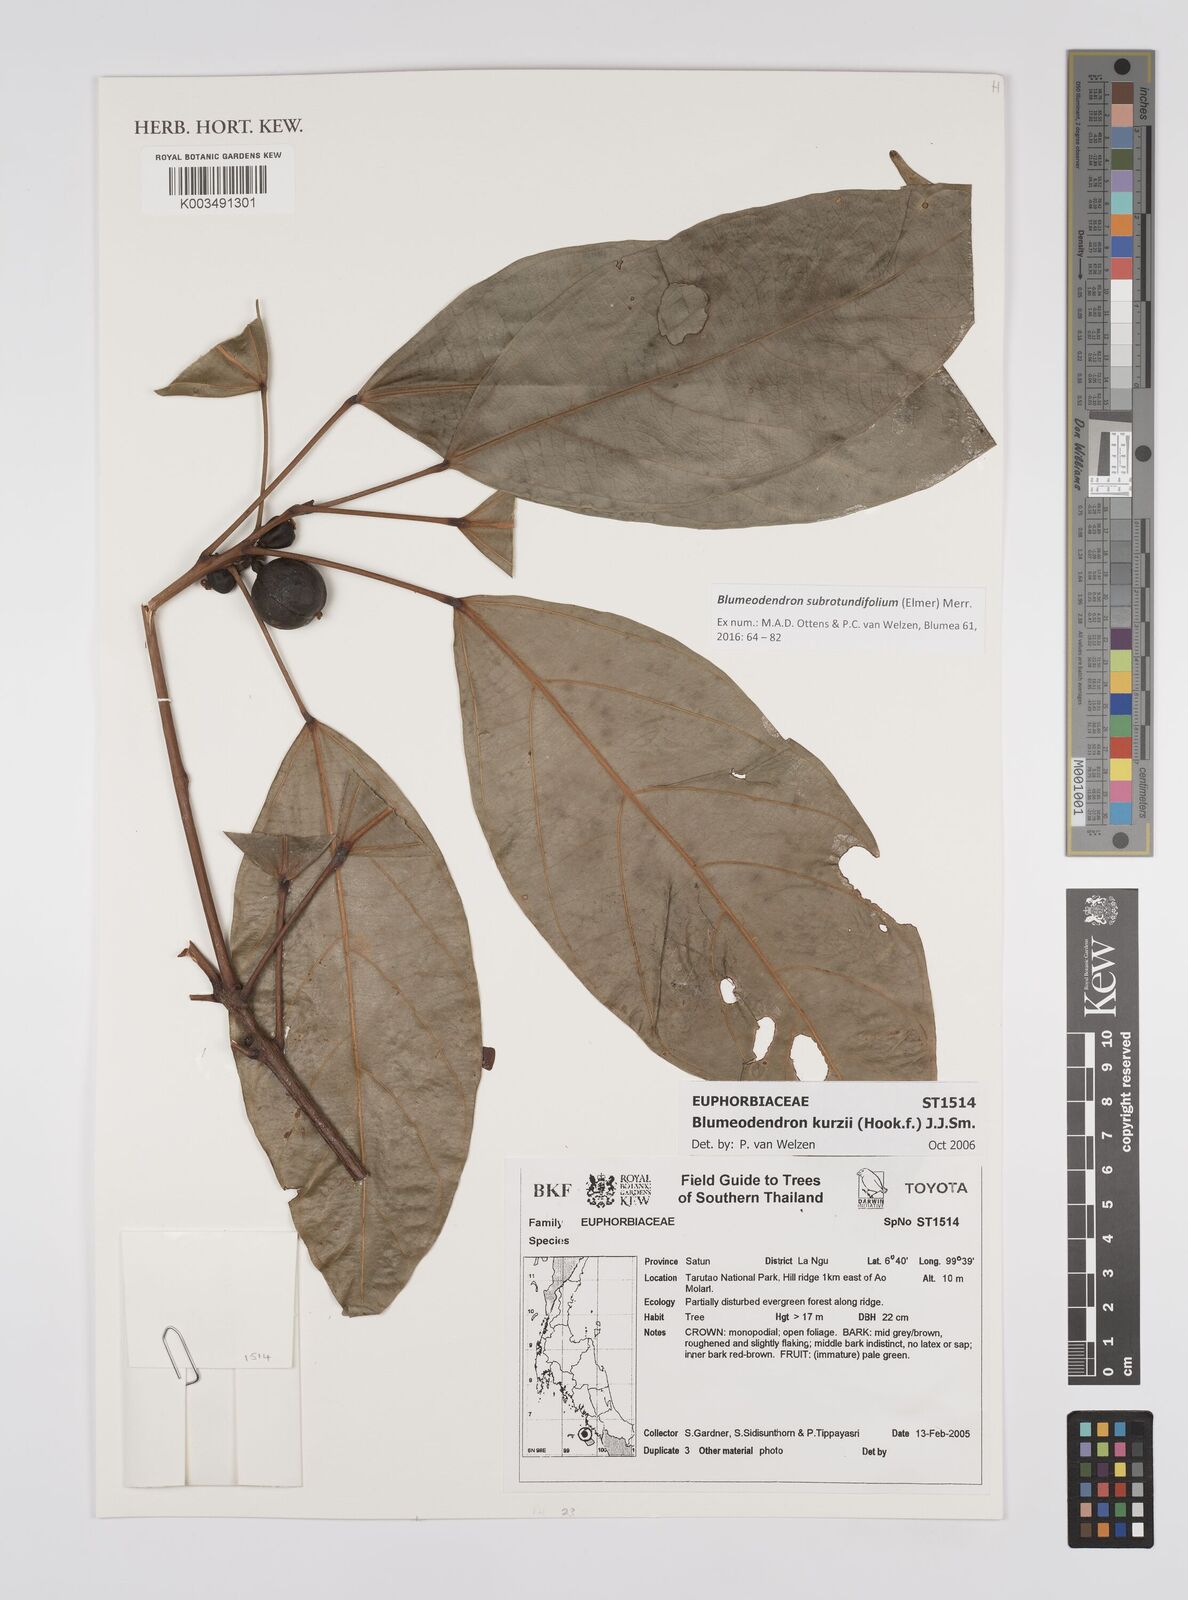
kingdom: Plantae
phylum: Tracheophyta
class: Magnoliopsida
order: Malpighiales
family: Euphorbiaceae
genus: Blumeodendron
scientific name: Blumeodendron subrotundifolium
